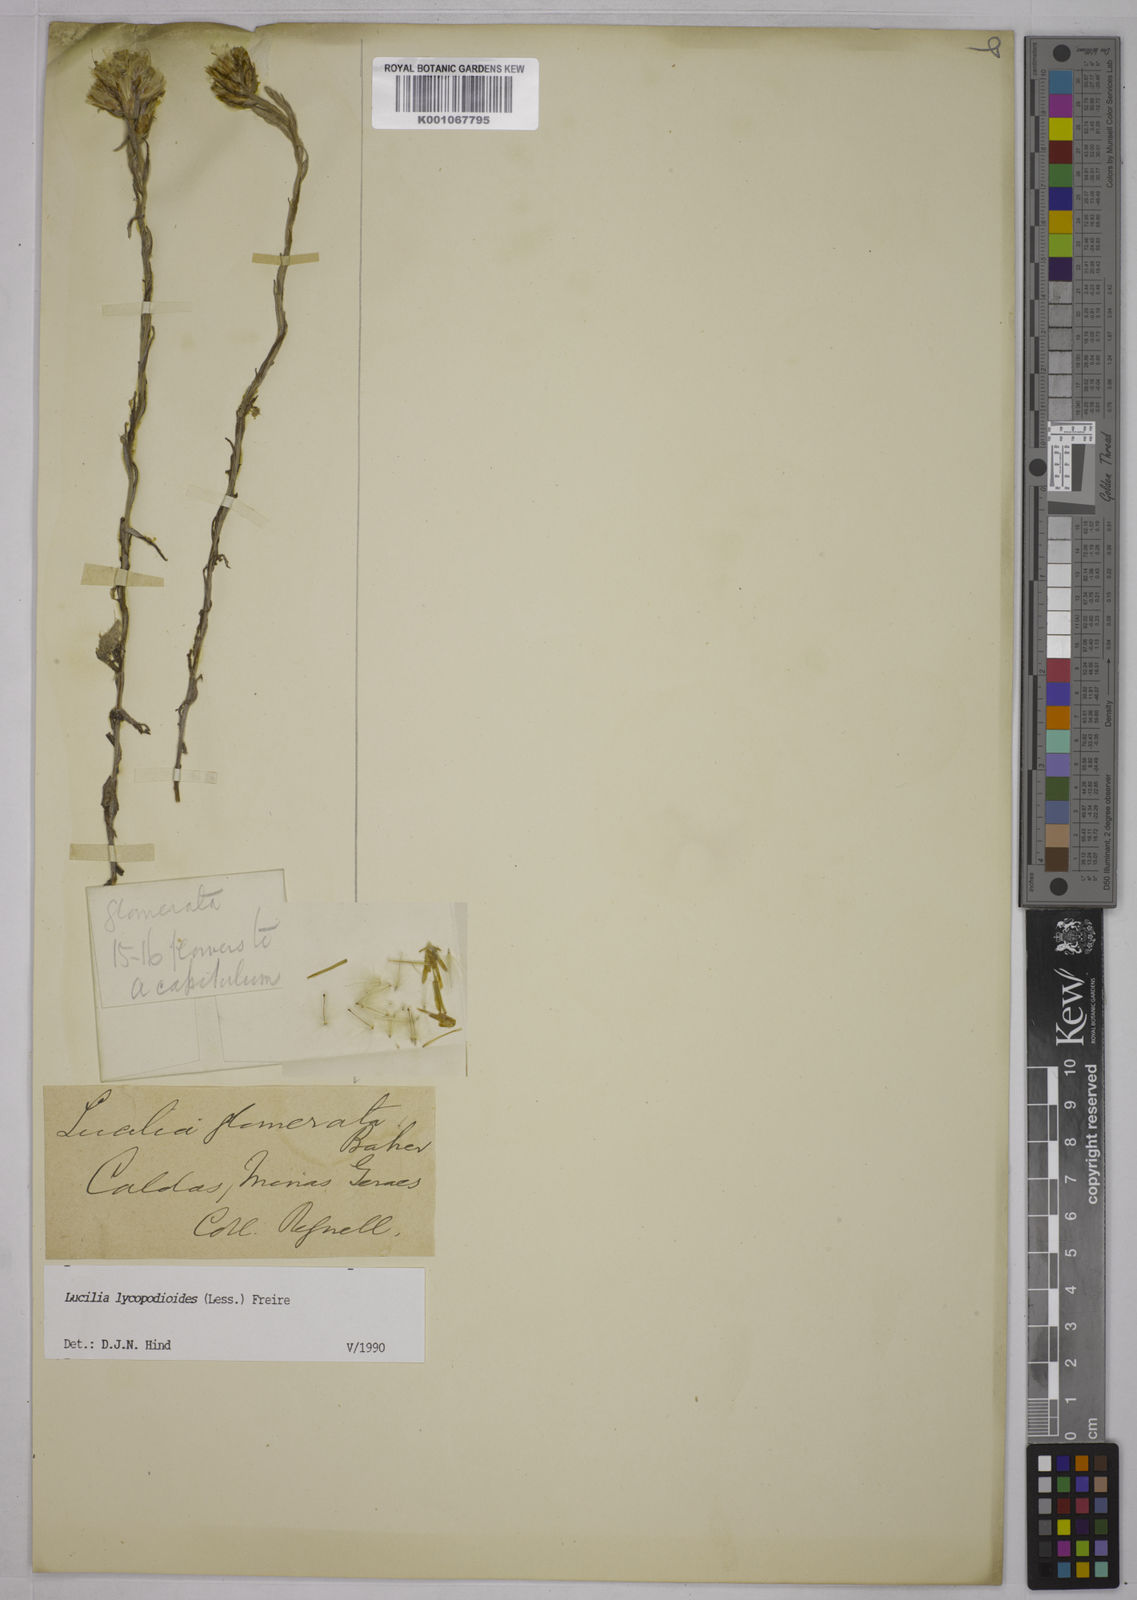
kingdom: Plantae
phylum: Tracheophyta
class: Magnoliopsida
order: Asterales
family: Asteraceae
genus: Lucilia
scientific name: Lucilia lycopodioides
